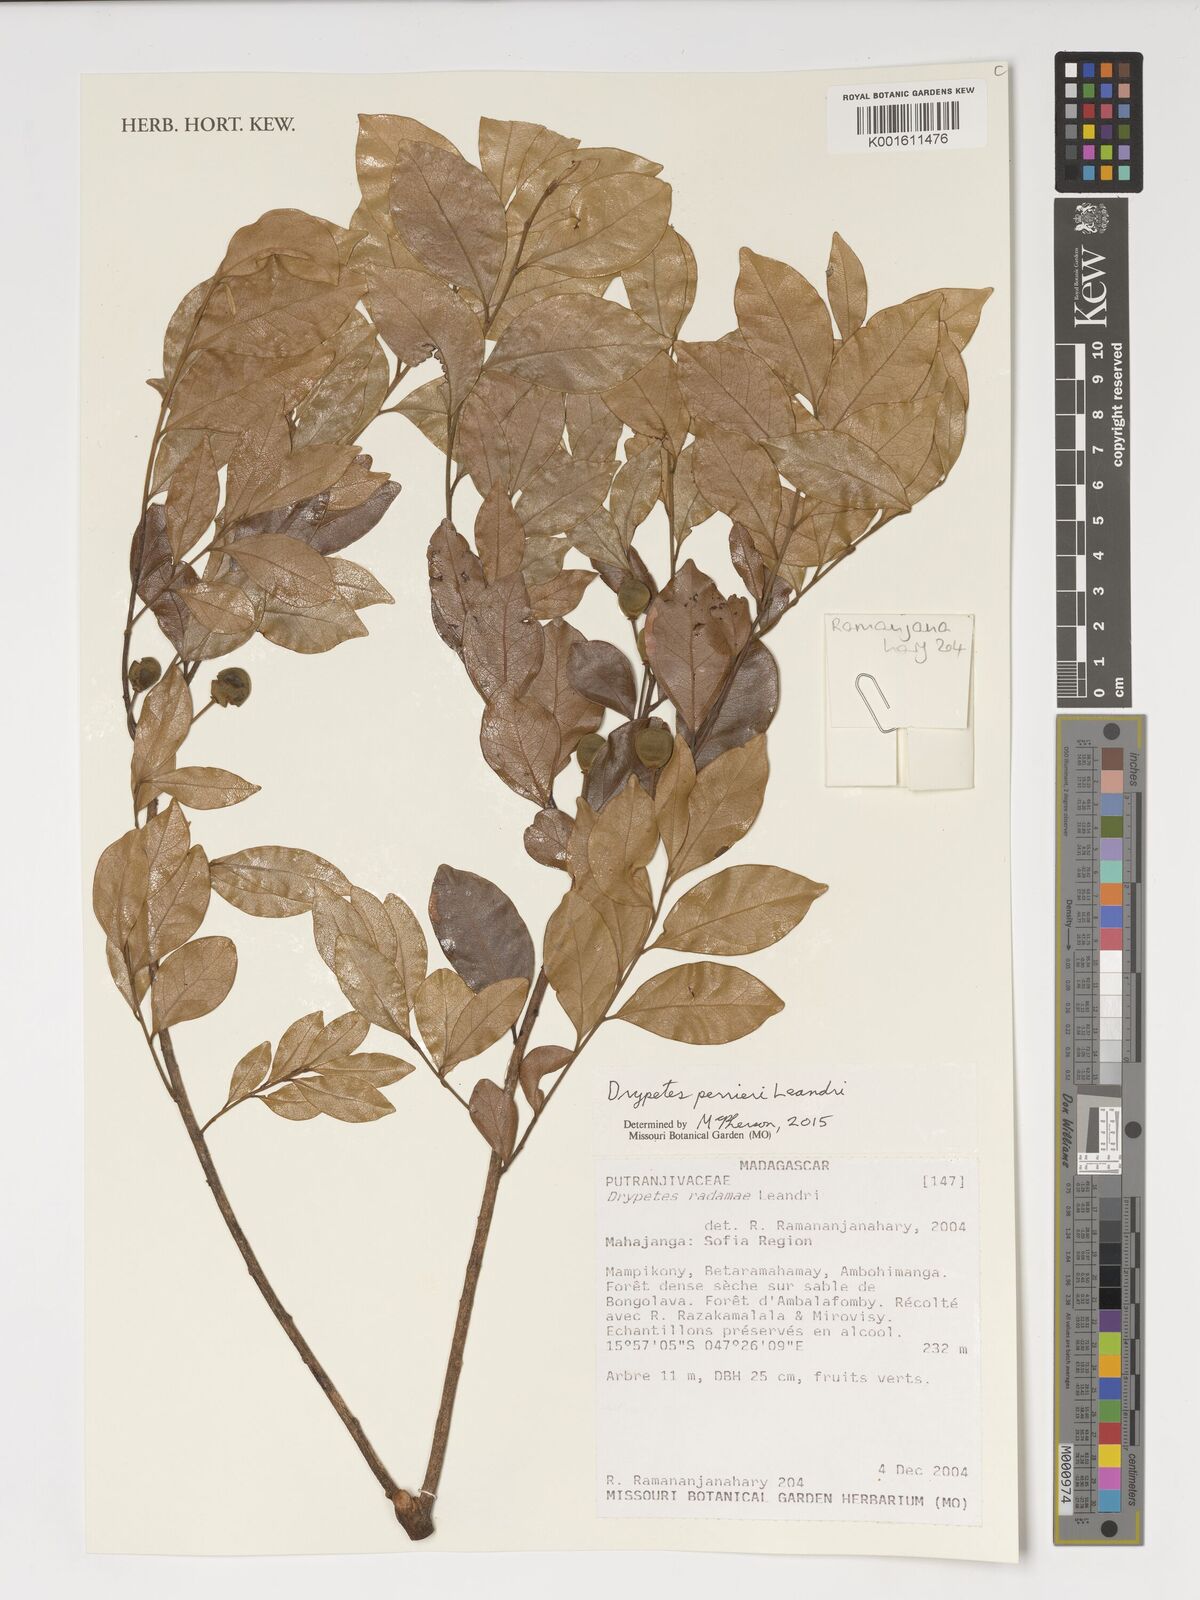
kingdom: Plantae
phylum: Tracheophyta
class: Magnoliopsida
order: Malpighiales
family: Putranjivaceae
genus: Drypetes
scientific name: Drypetes perrieri
